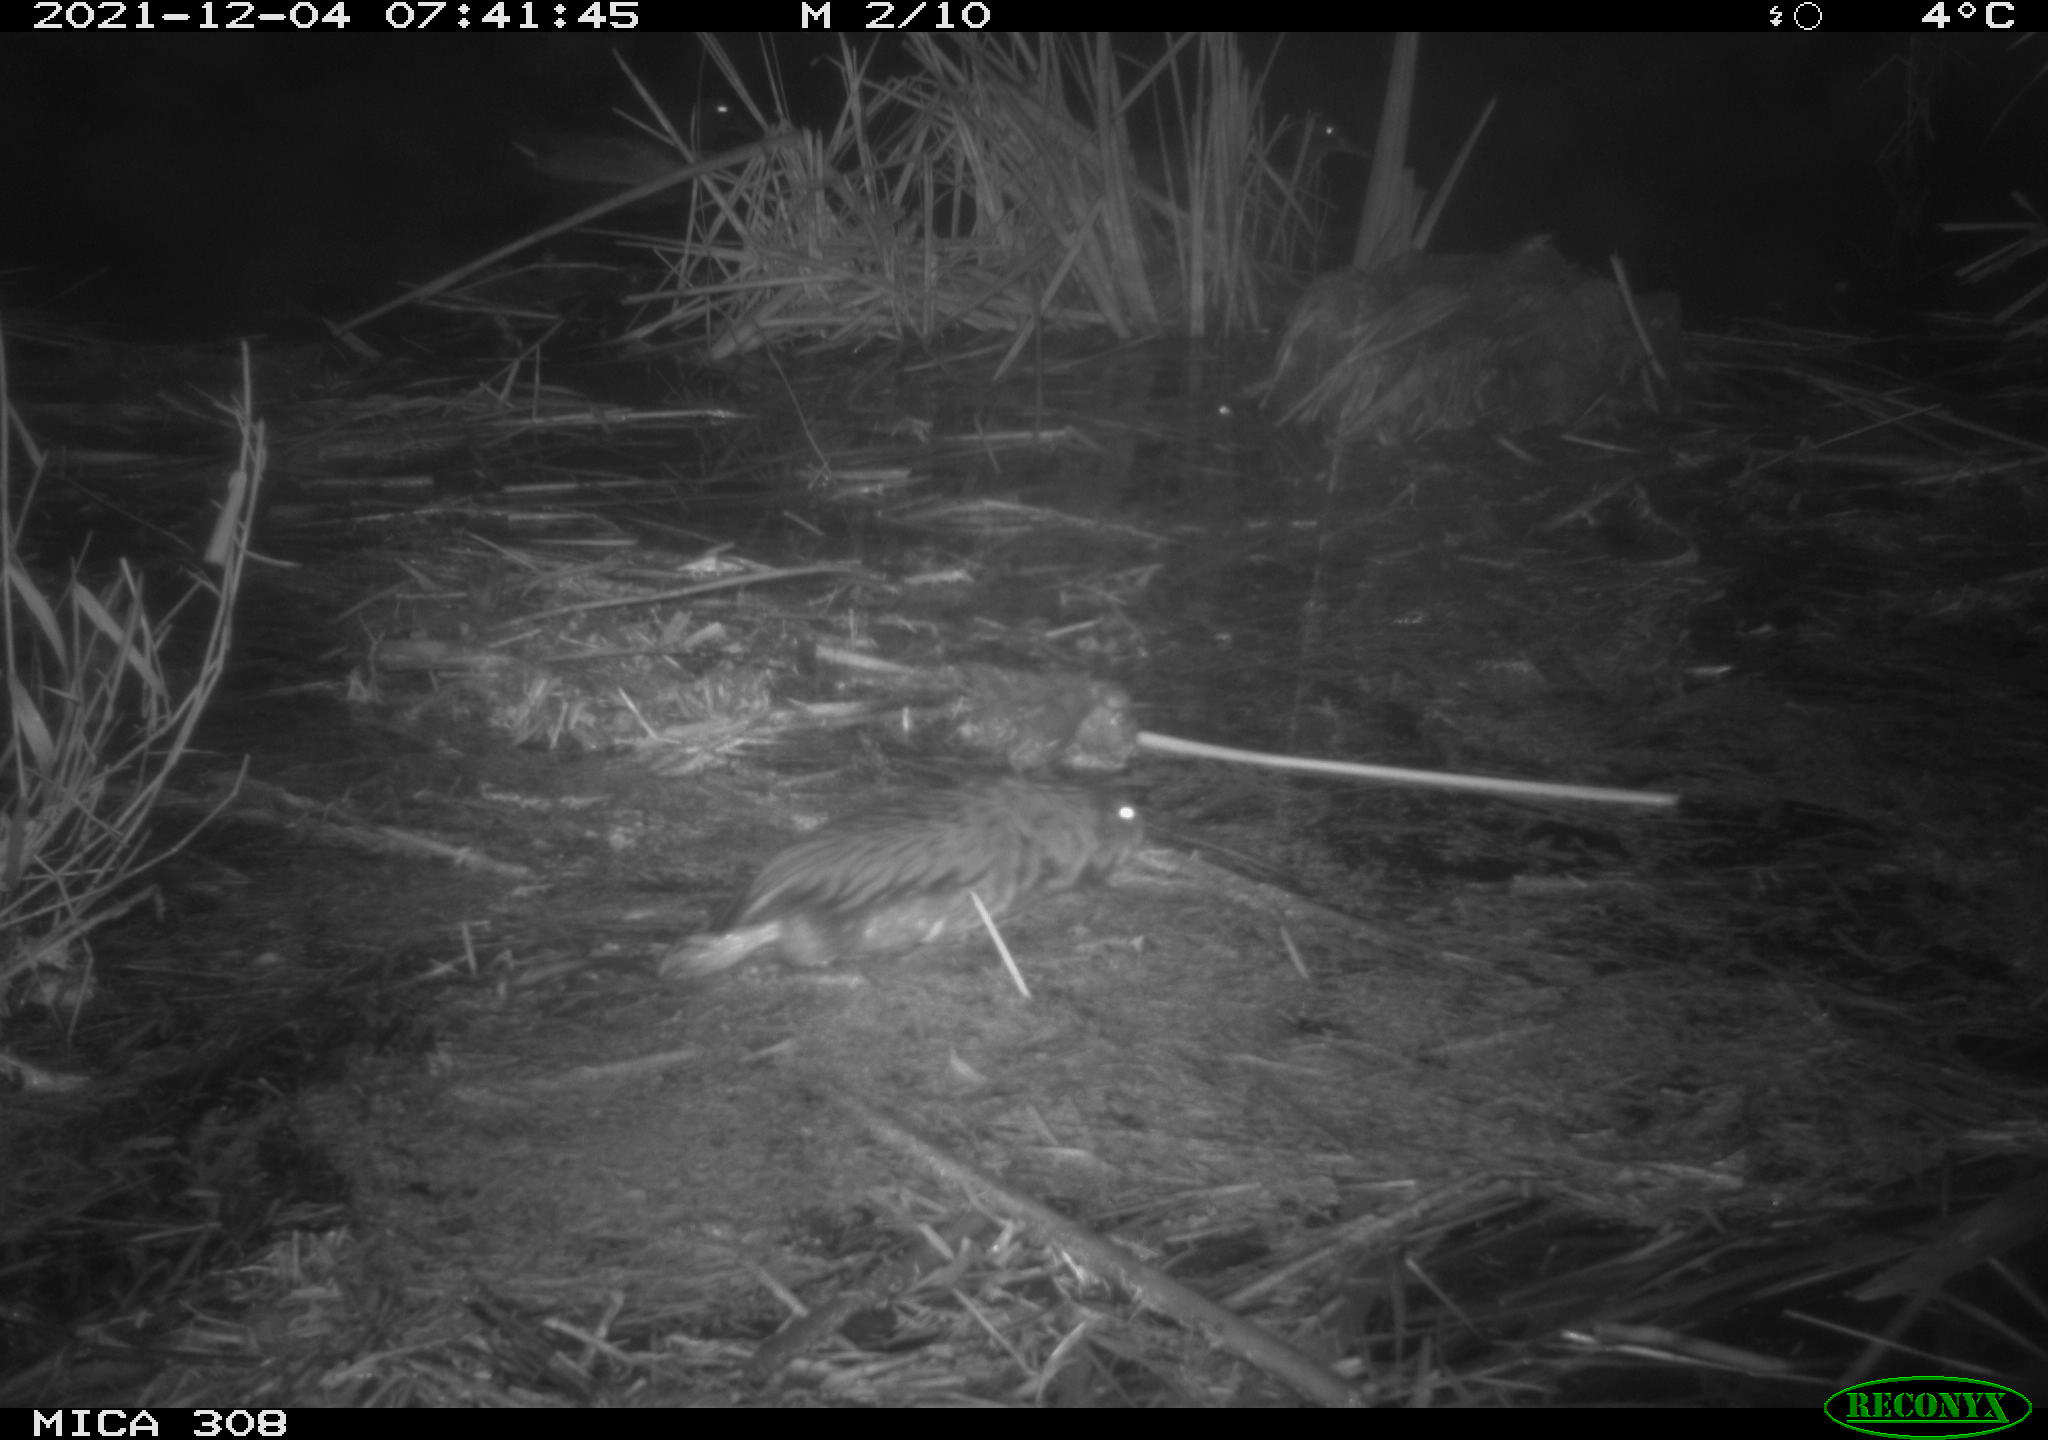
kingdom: Animalia
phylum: Chordata
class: Aves
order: Anseriformes
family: Anatidae
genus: Anas
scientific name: Anas platyrhynchos
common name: Mallard
